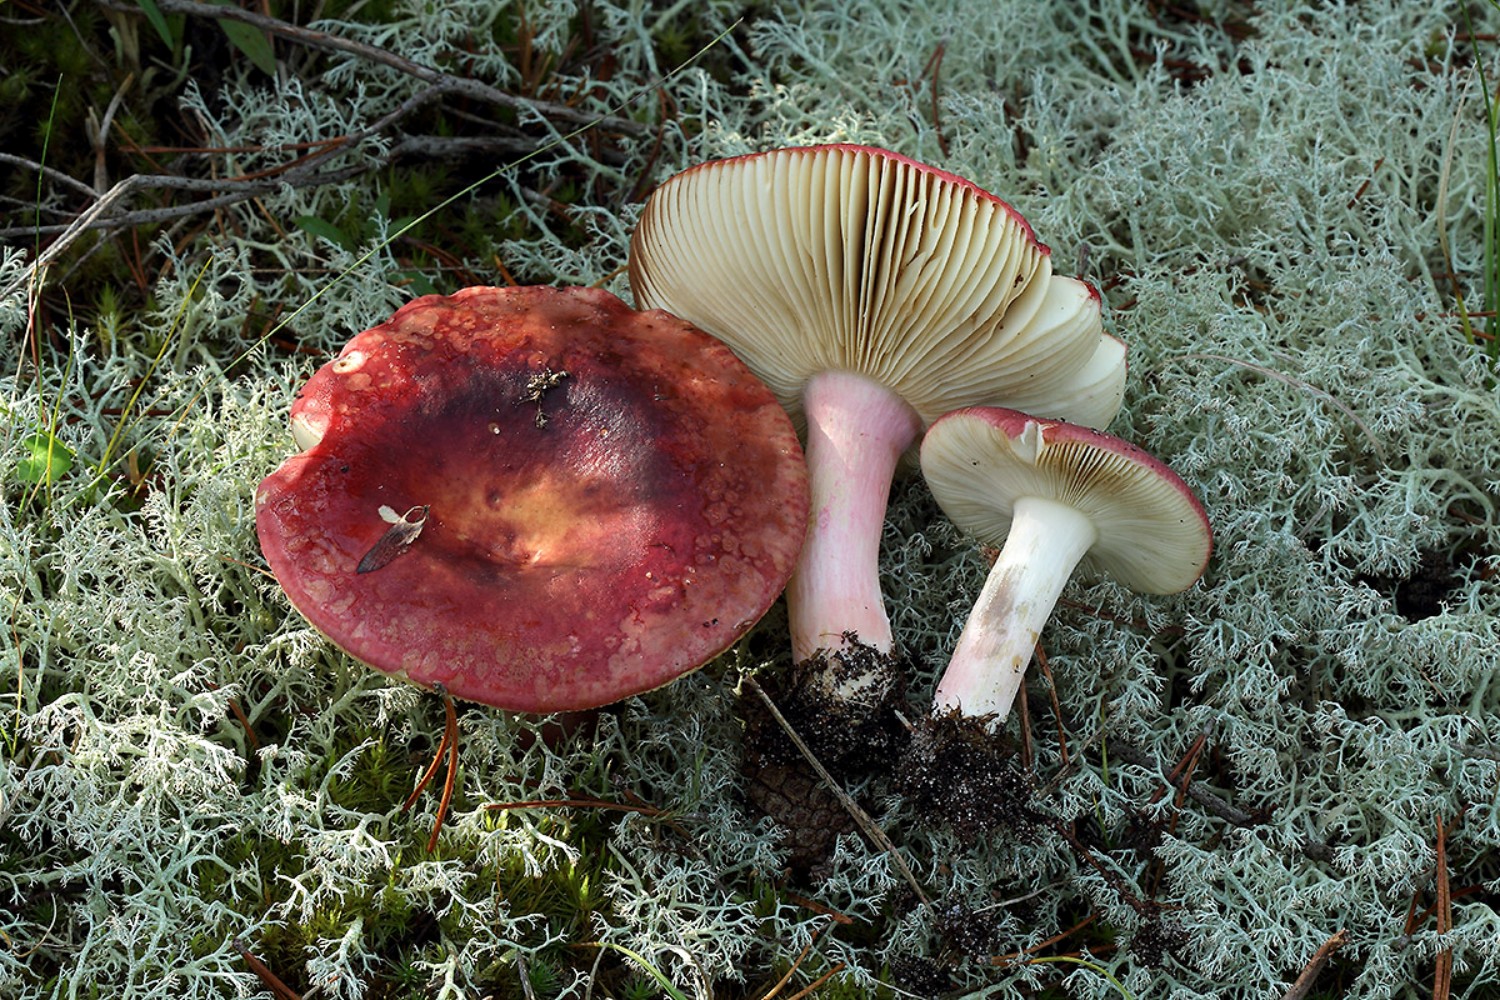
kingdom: Fungi
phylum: Basidiomycota
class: Agaricomycetes
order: Russulales
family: Russulaceae
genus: Russula
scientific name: Russula xerampelina
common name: hummer-skørhat
